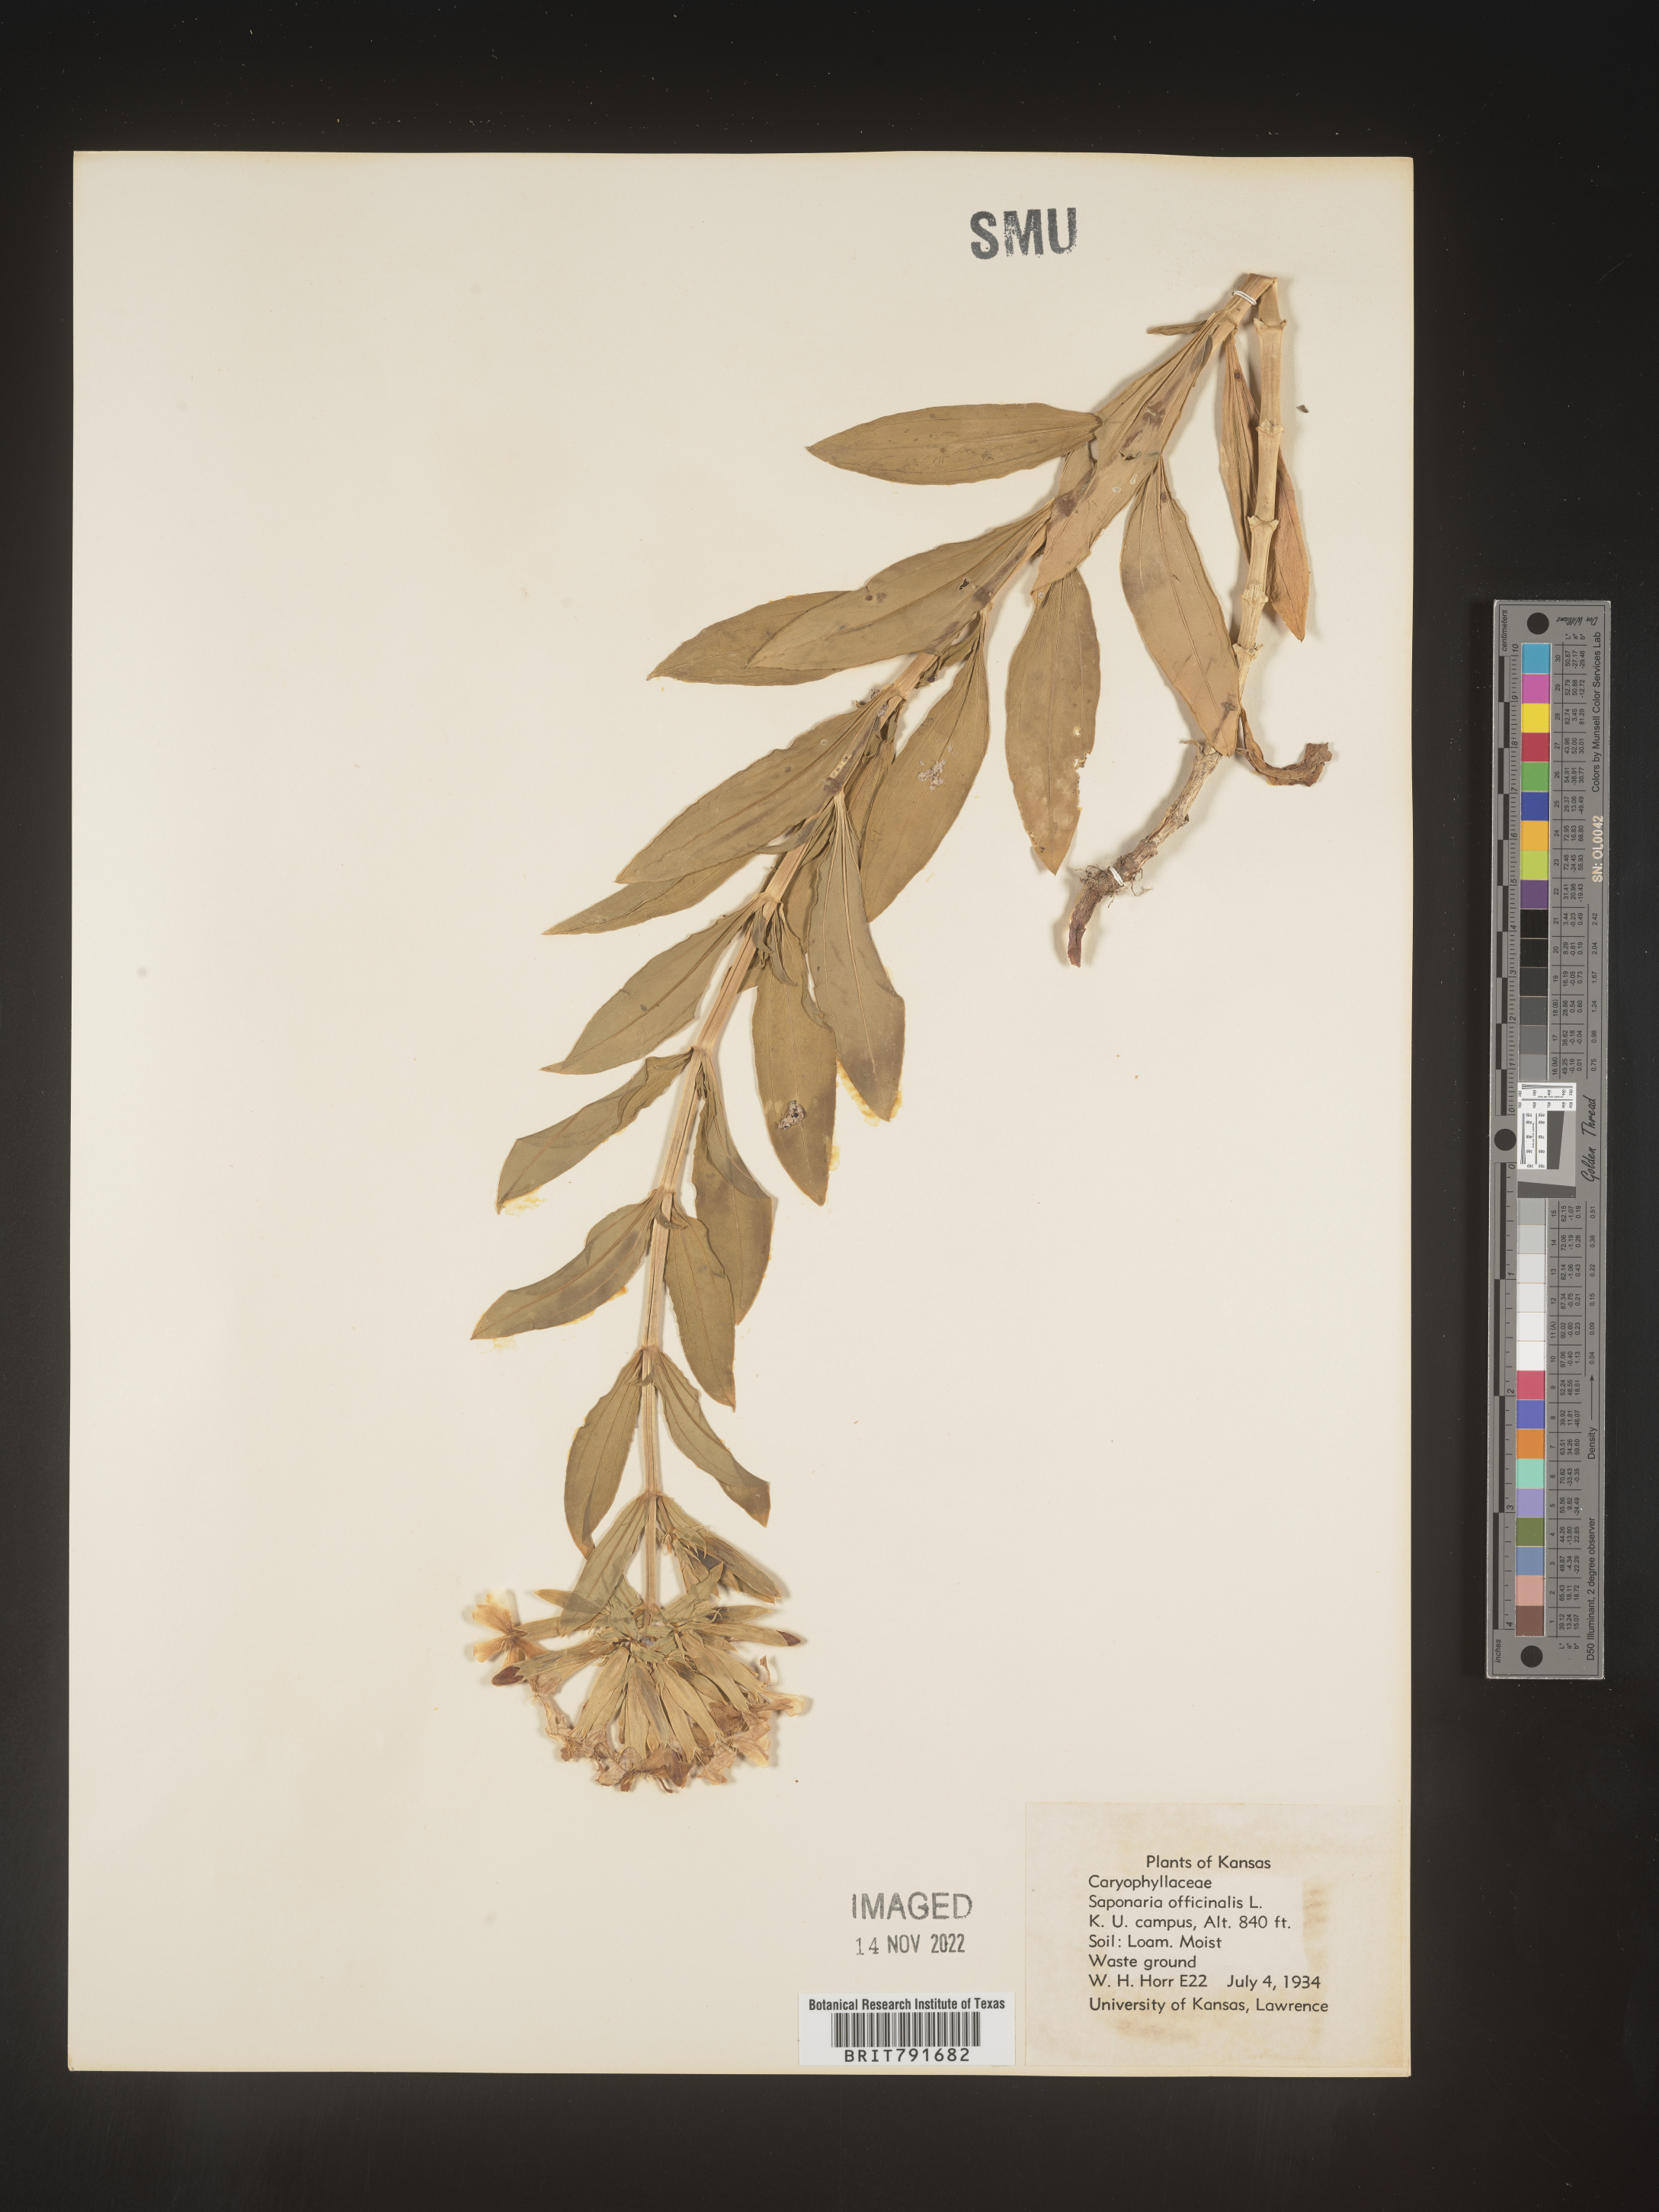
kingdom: Plantae
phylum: Tracheophyta
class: Magnoliopsida
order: Caryophyllales
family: Caryophyllaceae
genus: Saponaria
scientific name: Saponaria officinalis
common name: Soapwort
